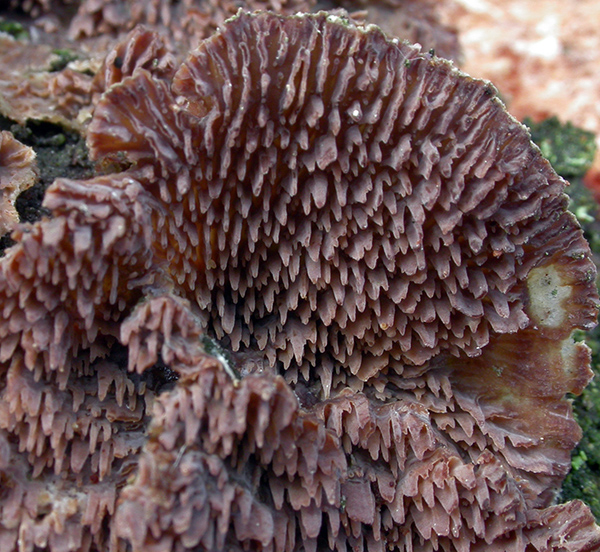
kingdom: Fungi
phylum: Basidiomycota
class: Agaricomycetes
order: Hymenochaetales
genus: Trichaptum
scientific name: Trichaptum fuscoviolaceum
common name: tandet violporesvamp
